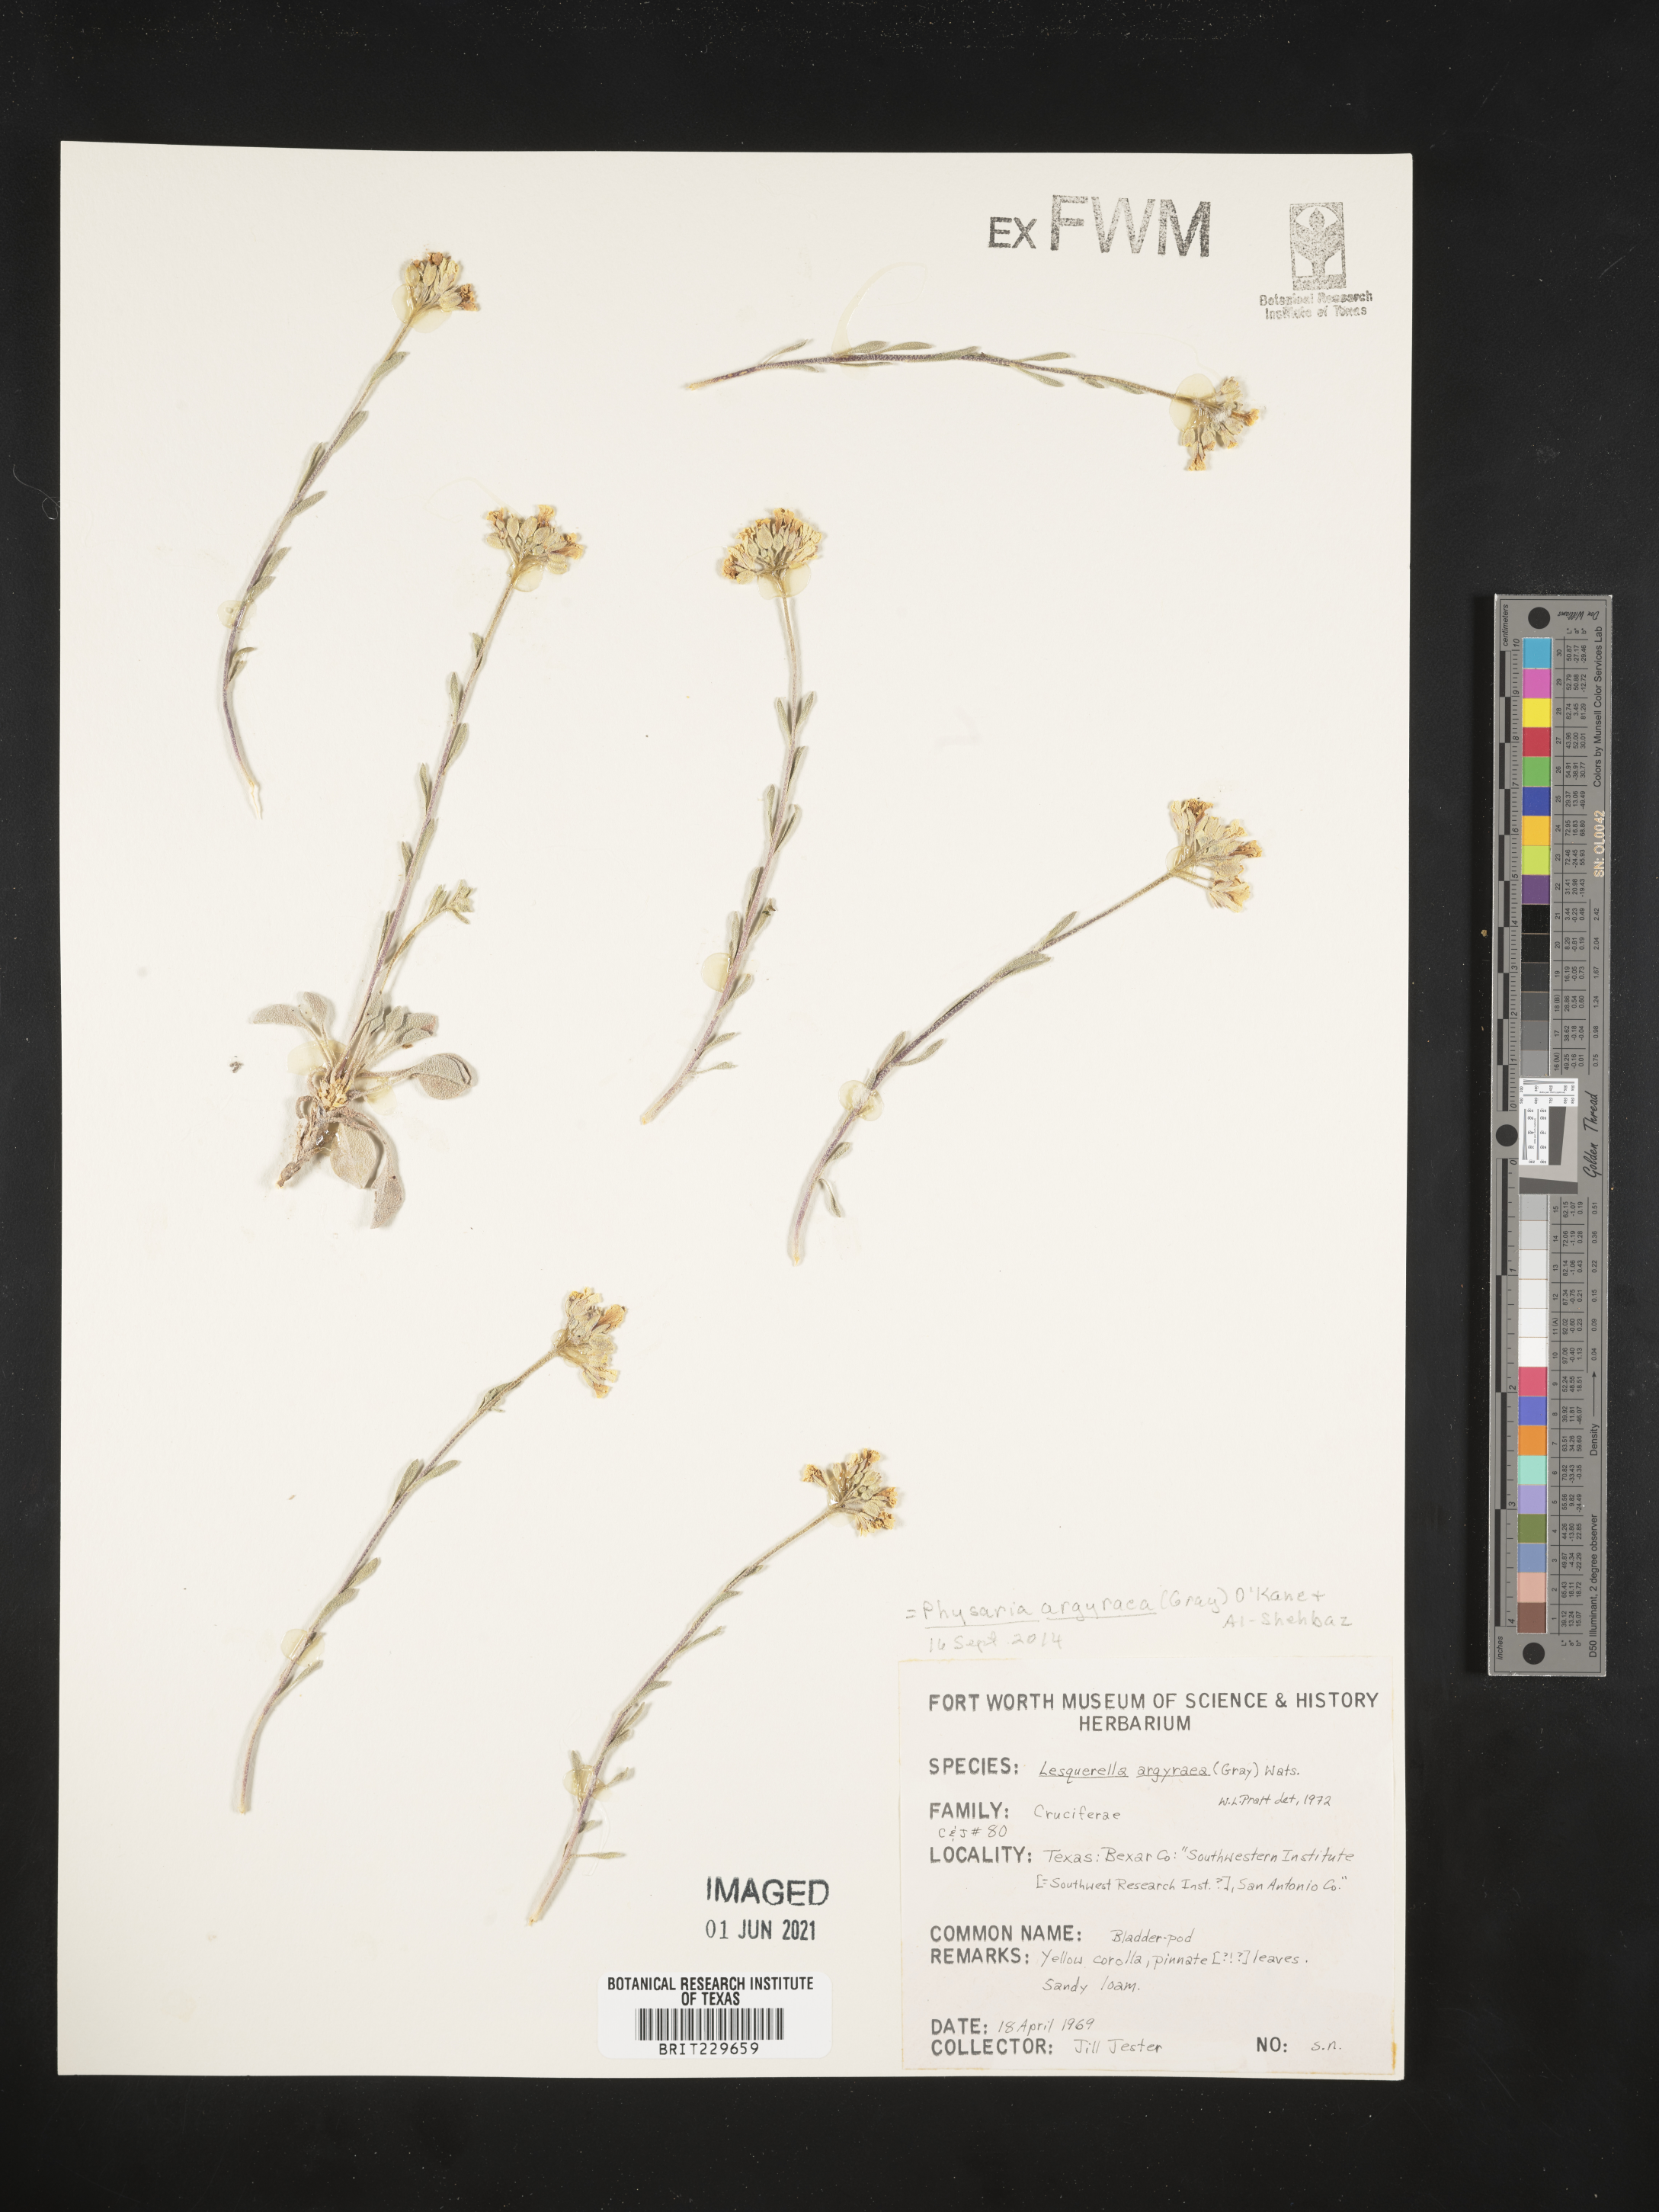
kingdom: Plantae
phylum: Tracheophyta
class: Magnoliopsida
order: Brassicales
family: Brassicaceae
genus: Physaria
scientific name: Physaria argyraea
